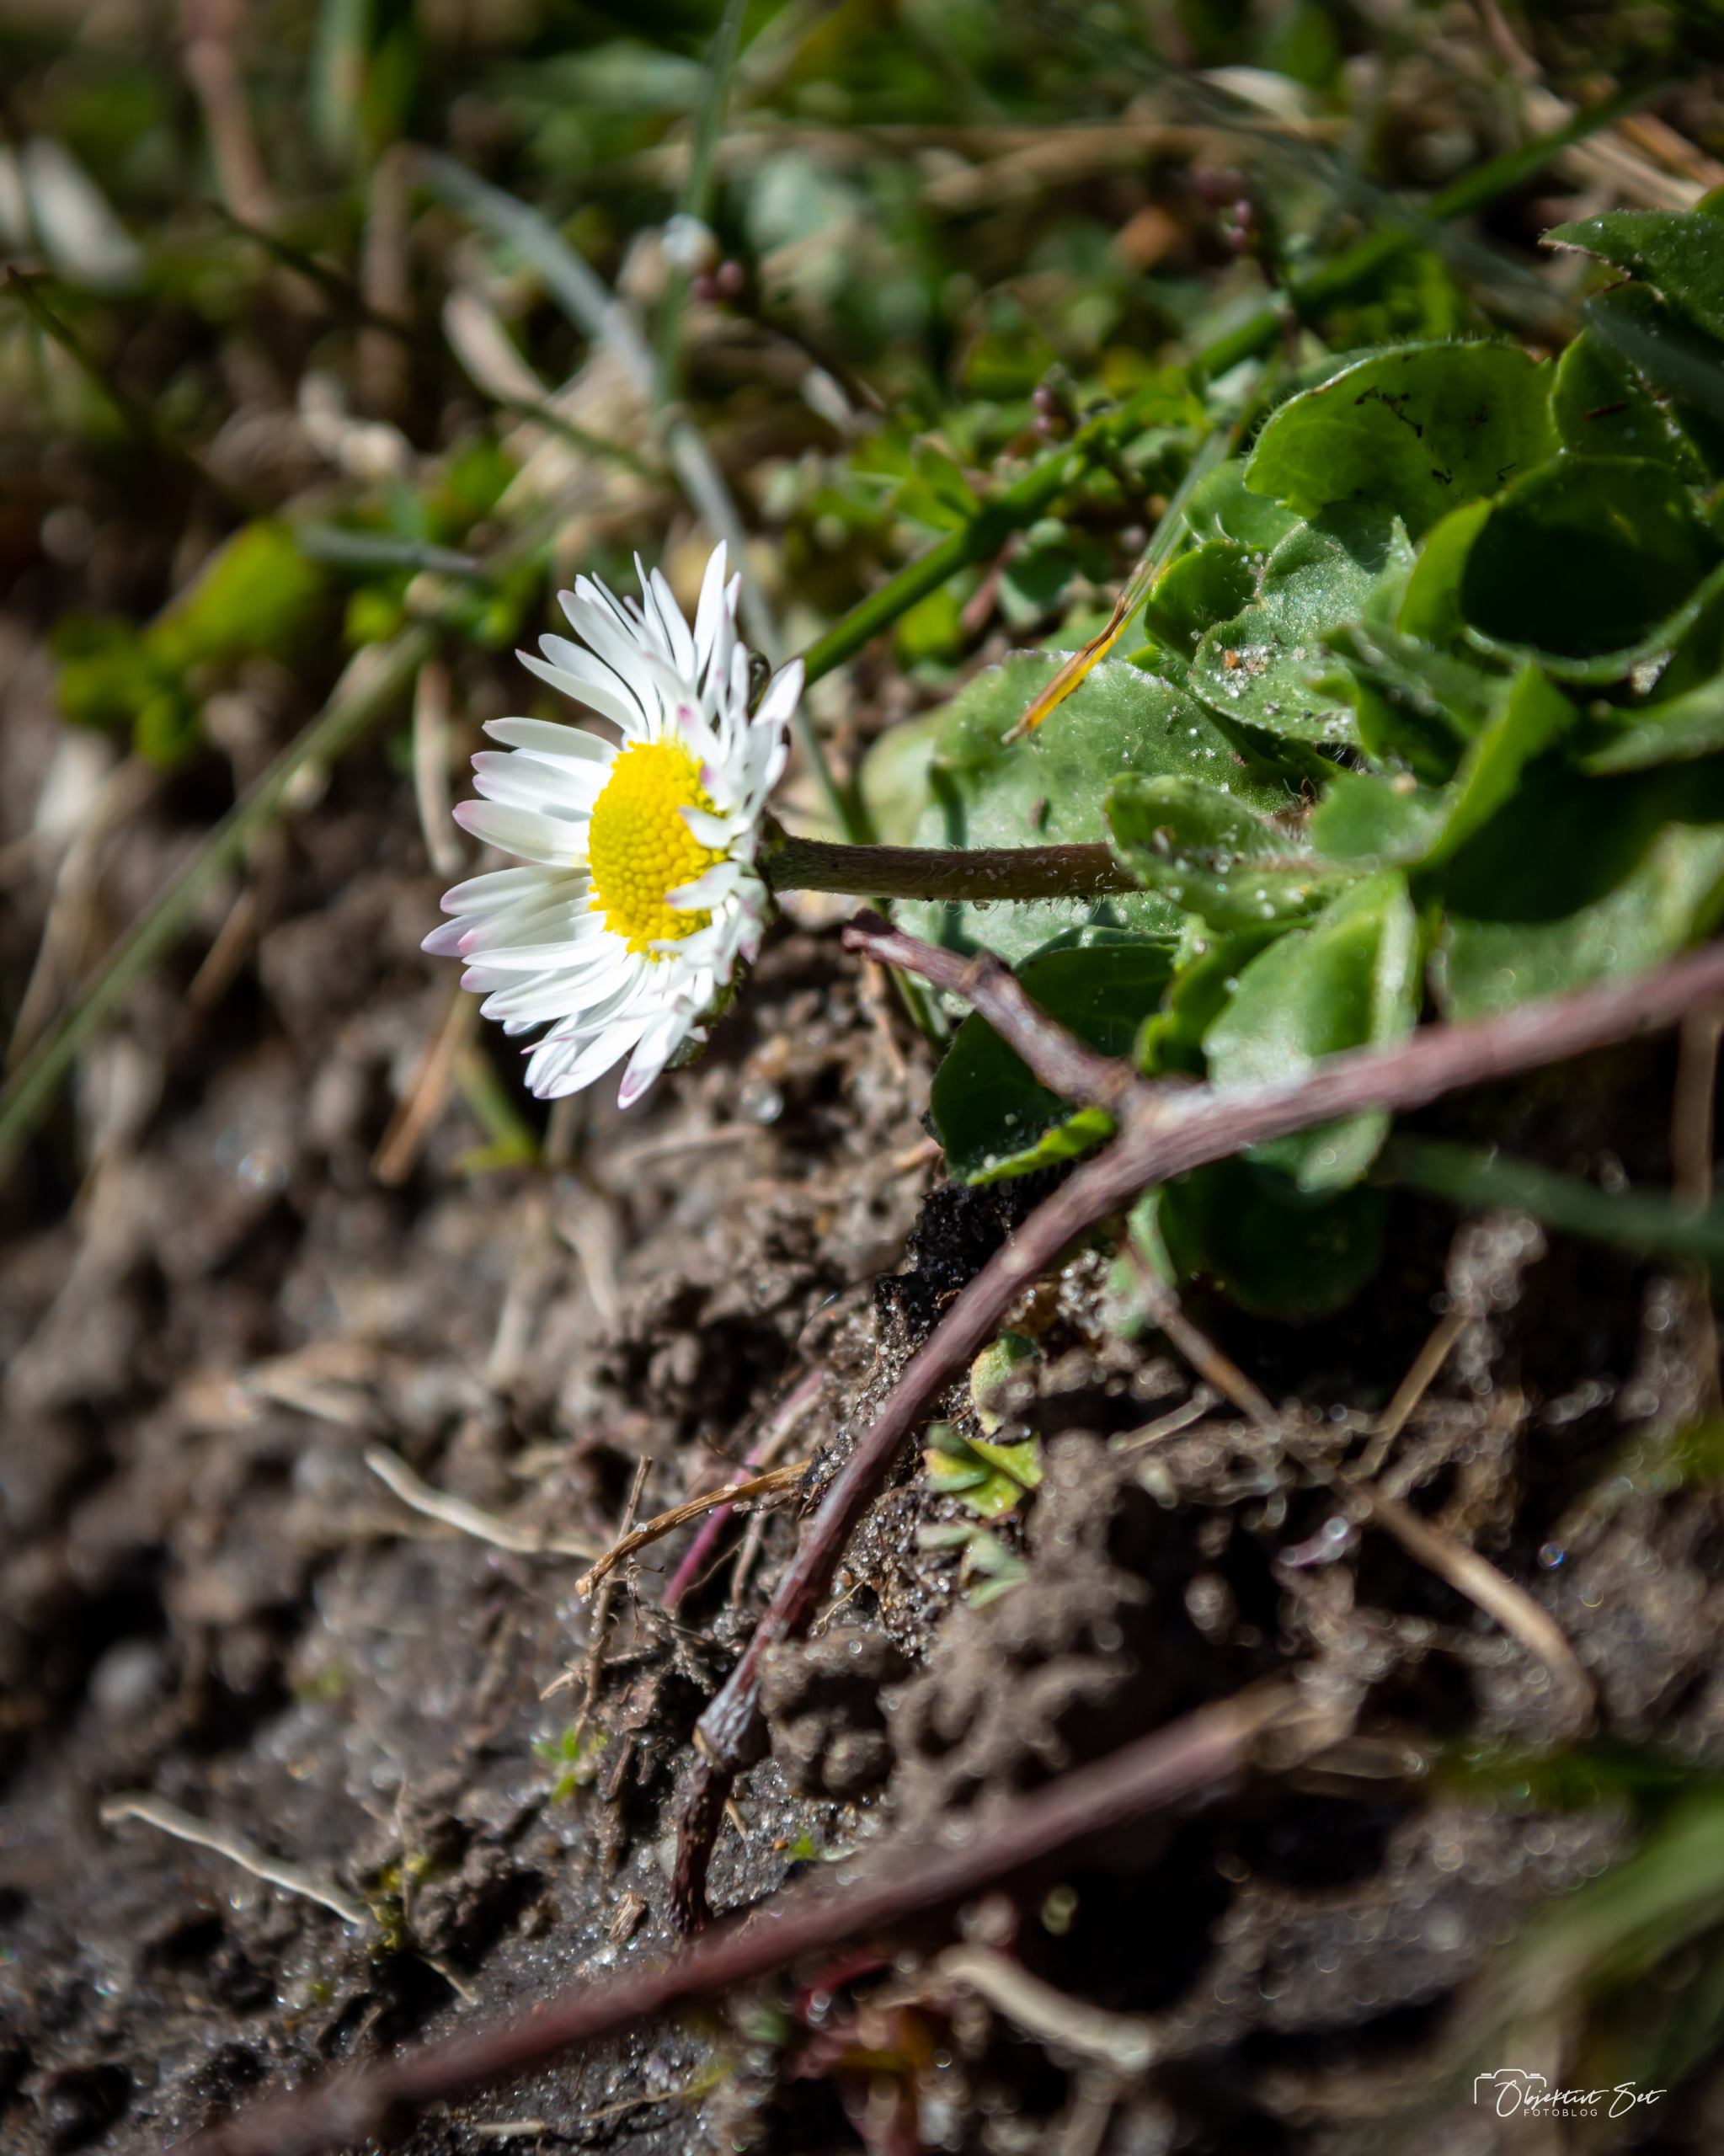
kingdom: Plantae
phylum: Tracheophyta
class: Magnoliopsida
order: Asterales
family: Asteraceae
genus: Bellis
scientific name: Bellis perennis
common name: Tusindfryd
